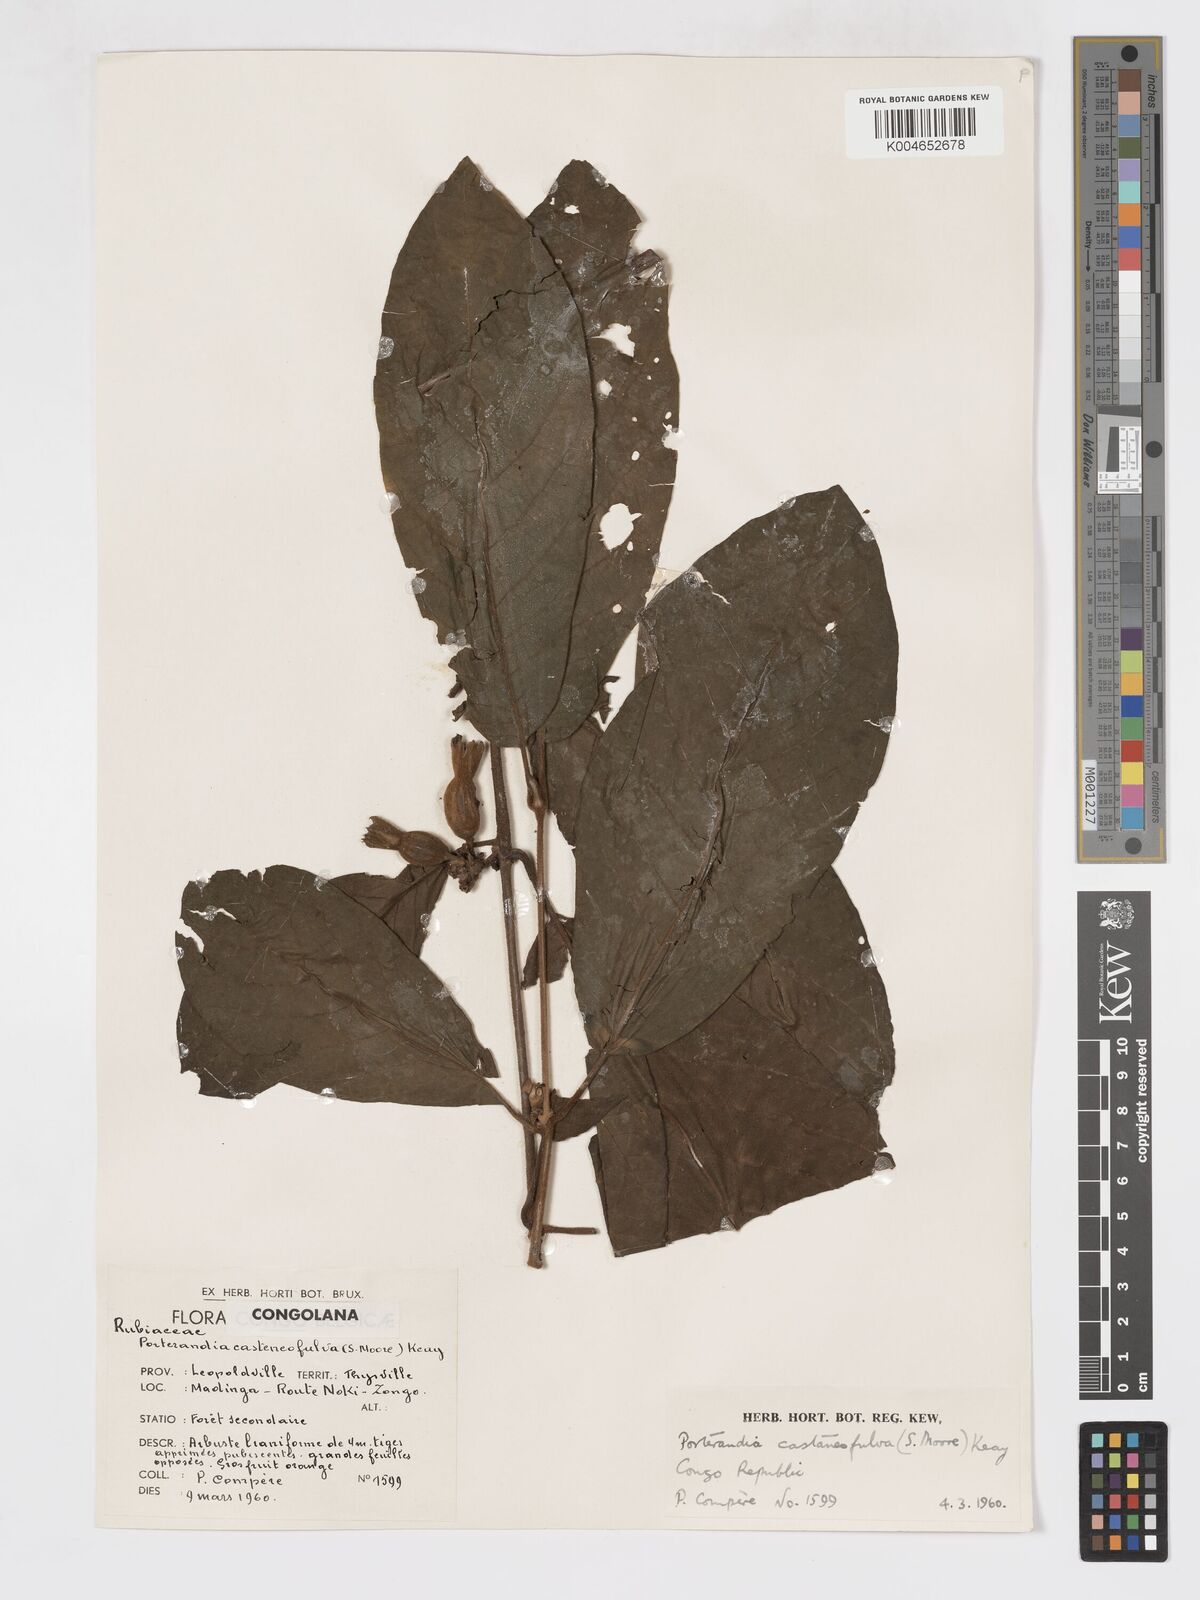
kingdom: Plantae
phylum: Tracheophyta
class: Magnoliopsida
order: Gentianales
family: Rubiaceae
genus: Aoranthe
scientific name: Aoranthe castaneofulva
